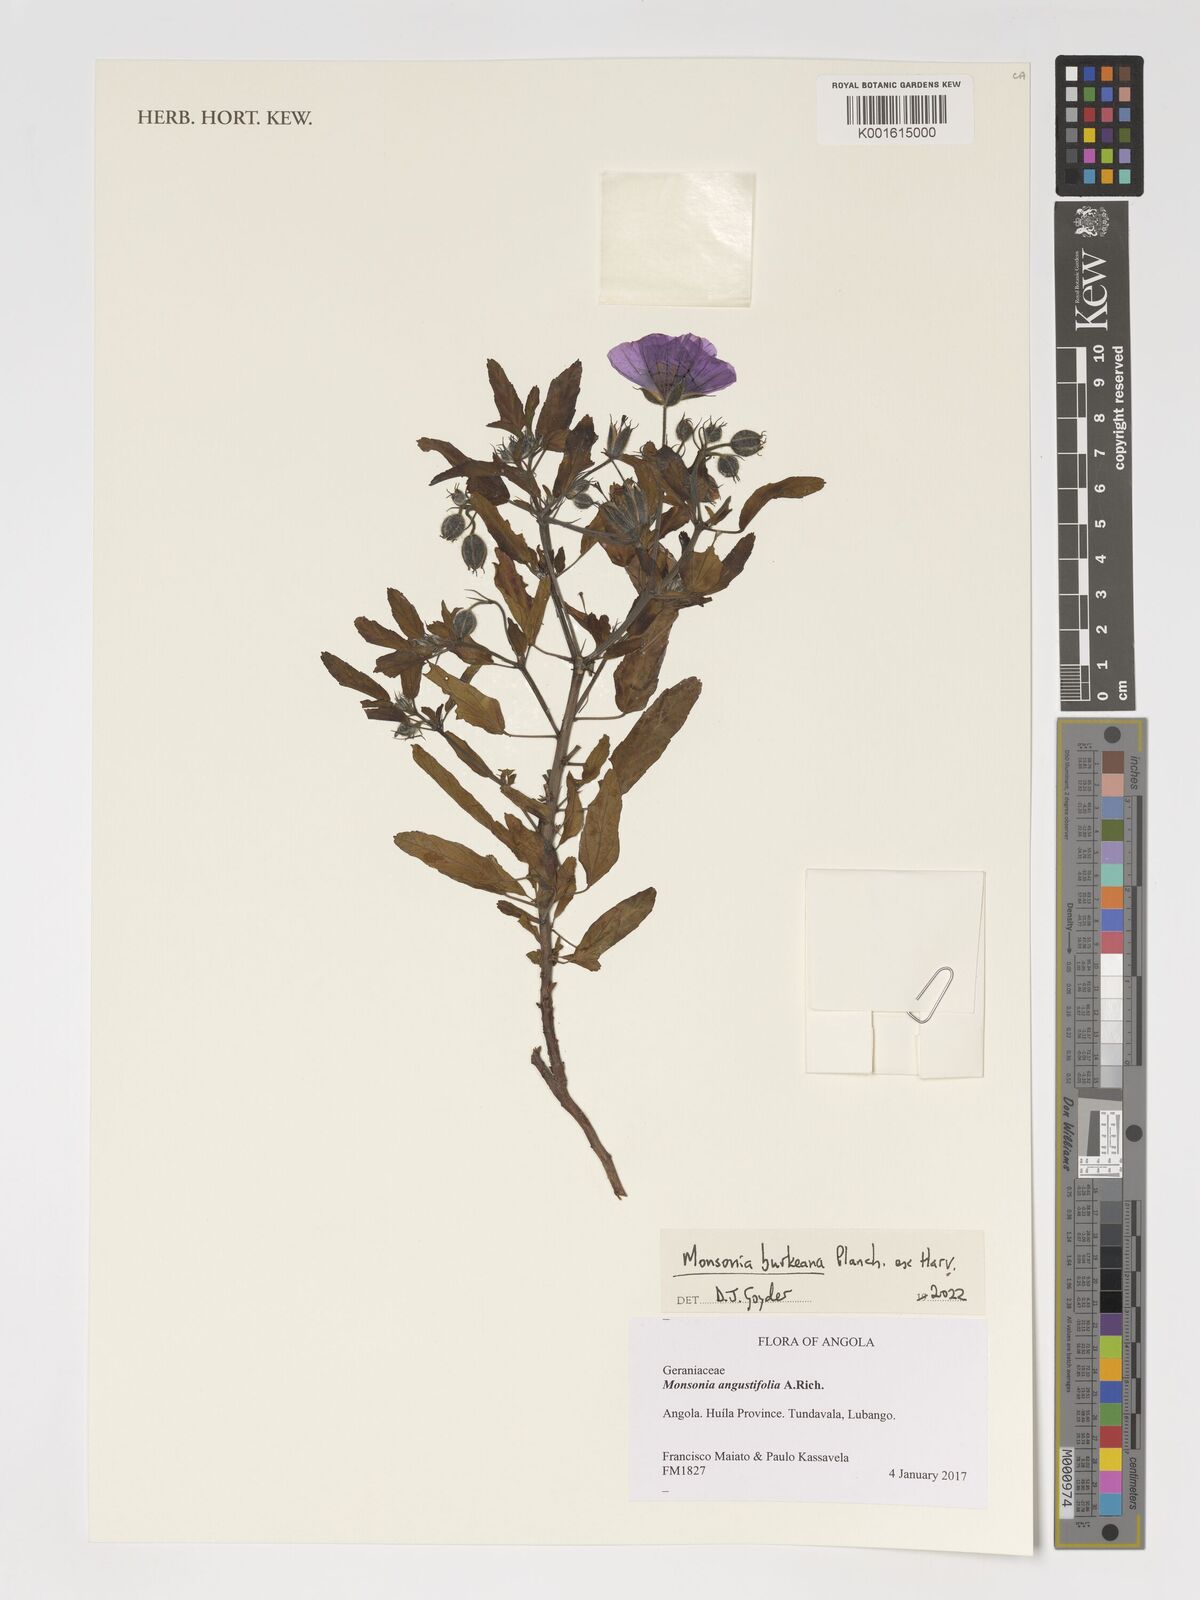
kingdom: Plantae
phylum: Tracheophyta
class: Magnoliopsida
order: Geraniales
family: Geraniaceae
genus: Monsonia
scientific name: Monsonia biflora
